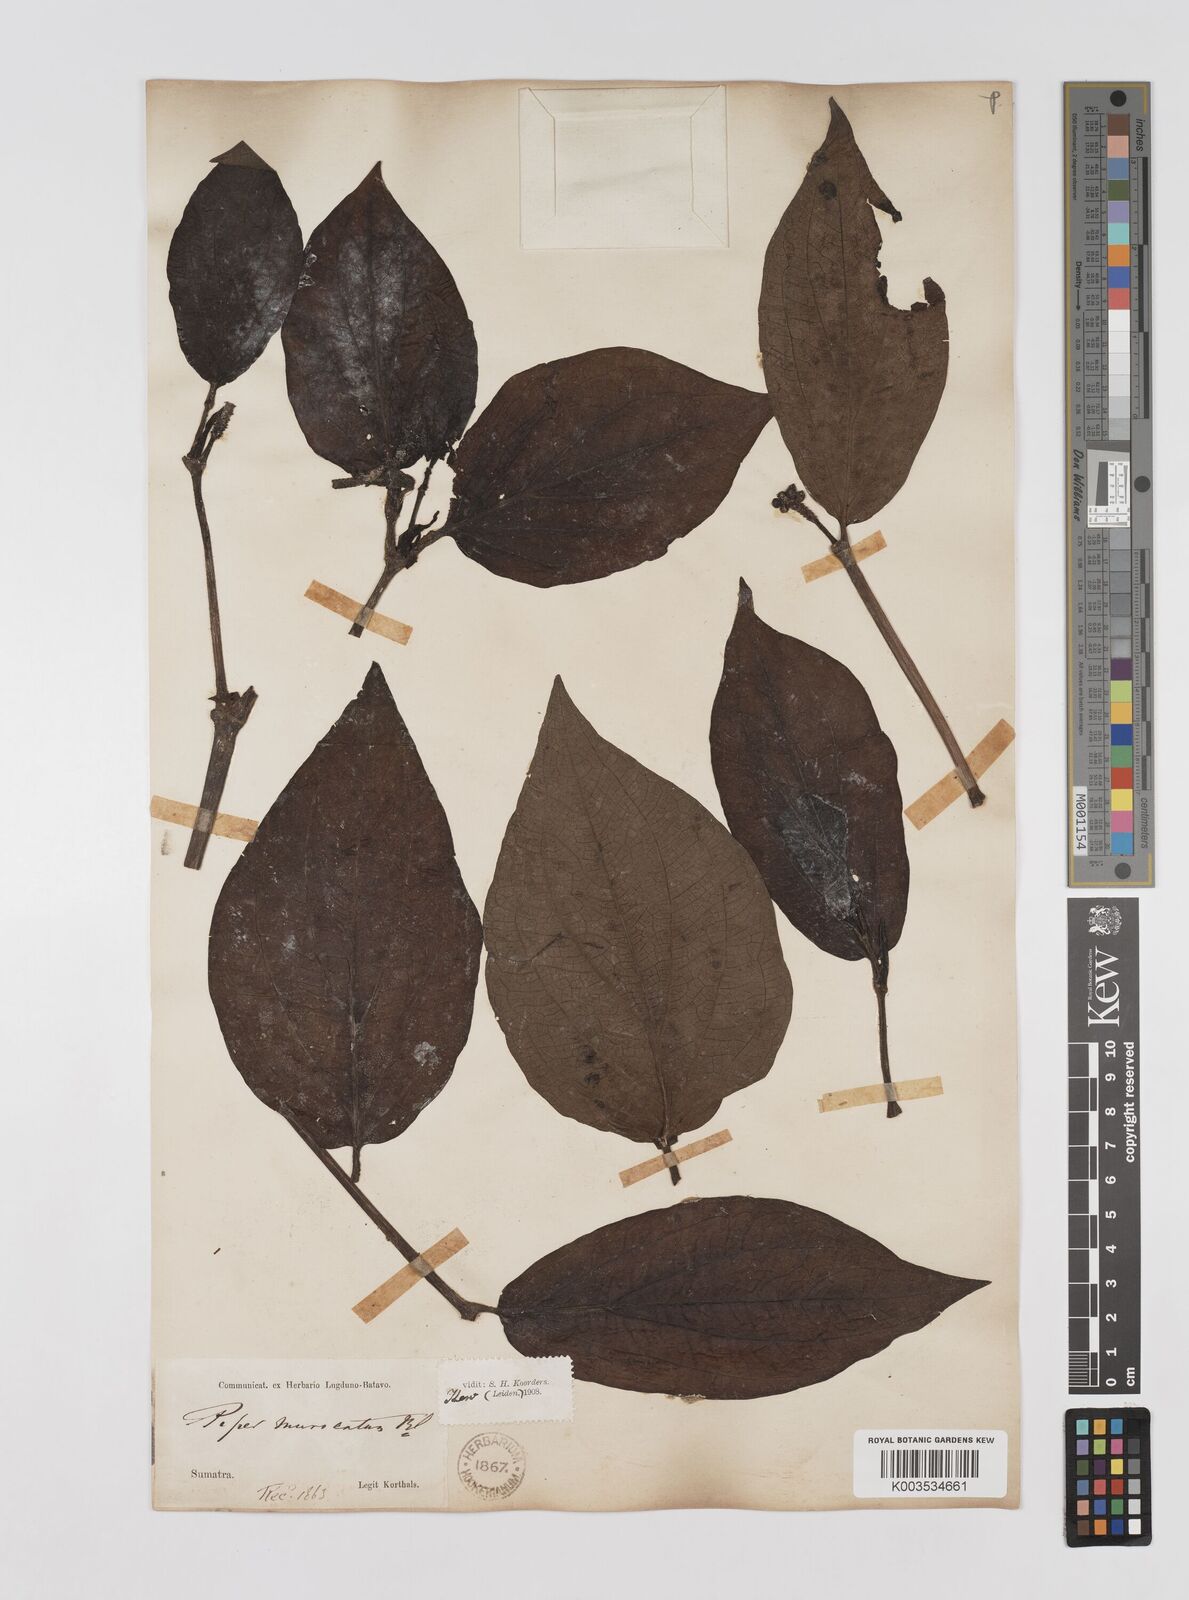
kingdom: Plantae
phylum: Tracheophyta
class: Magnoliopsida
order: Piperales
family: Piperaceae
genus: Piper
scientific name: Piper muricatum
